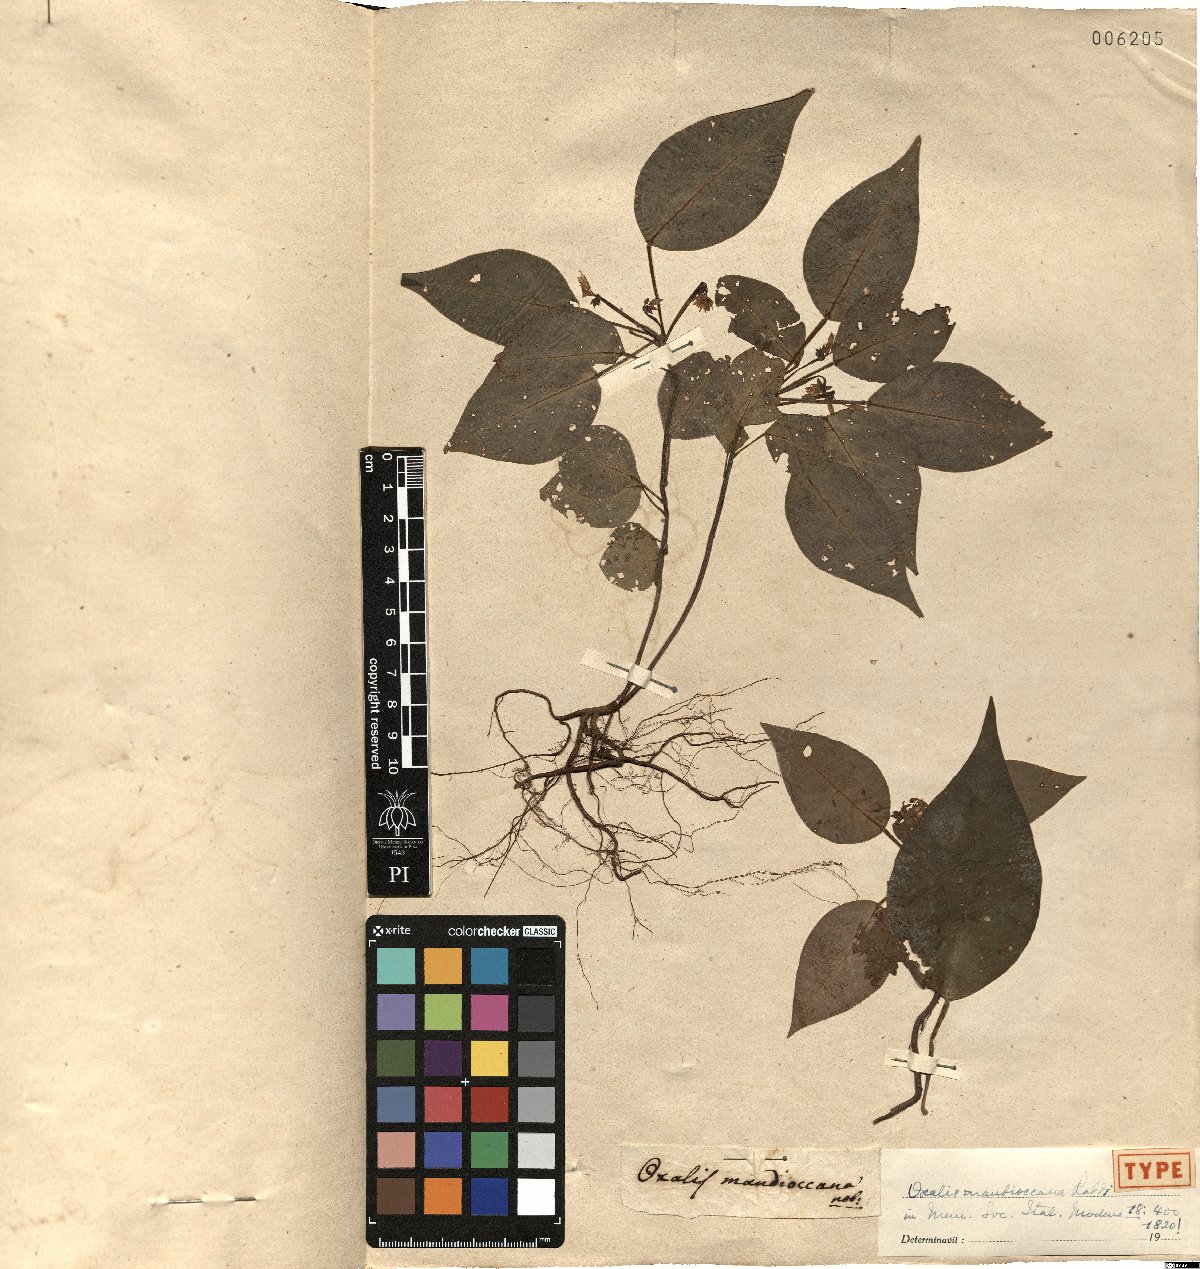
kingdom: Plantae
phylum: Tracheophyta
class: Magnoliopsida
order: Oxalidales
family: Oxalidaceae
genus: Oxalis
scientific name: Oxalis mandioccana
